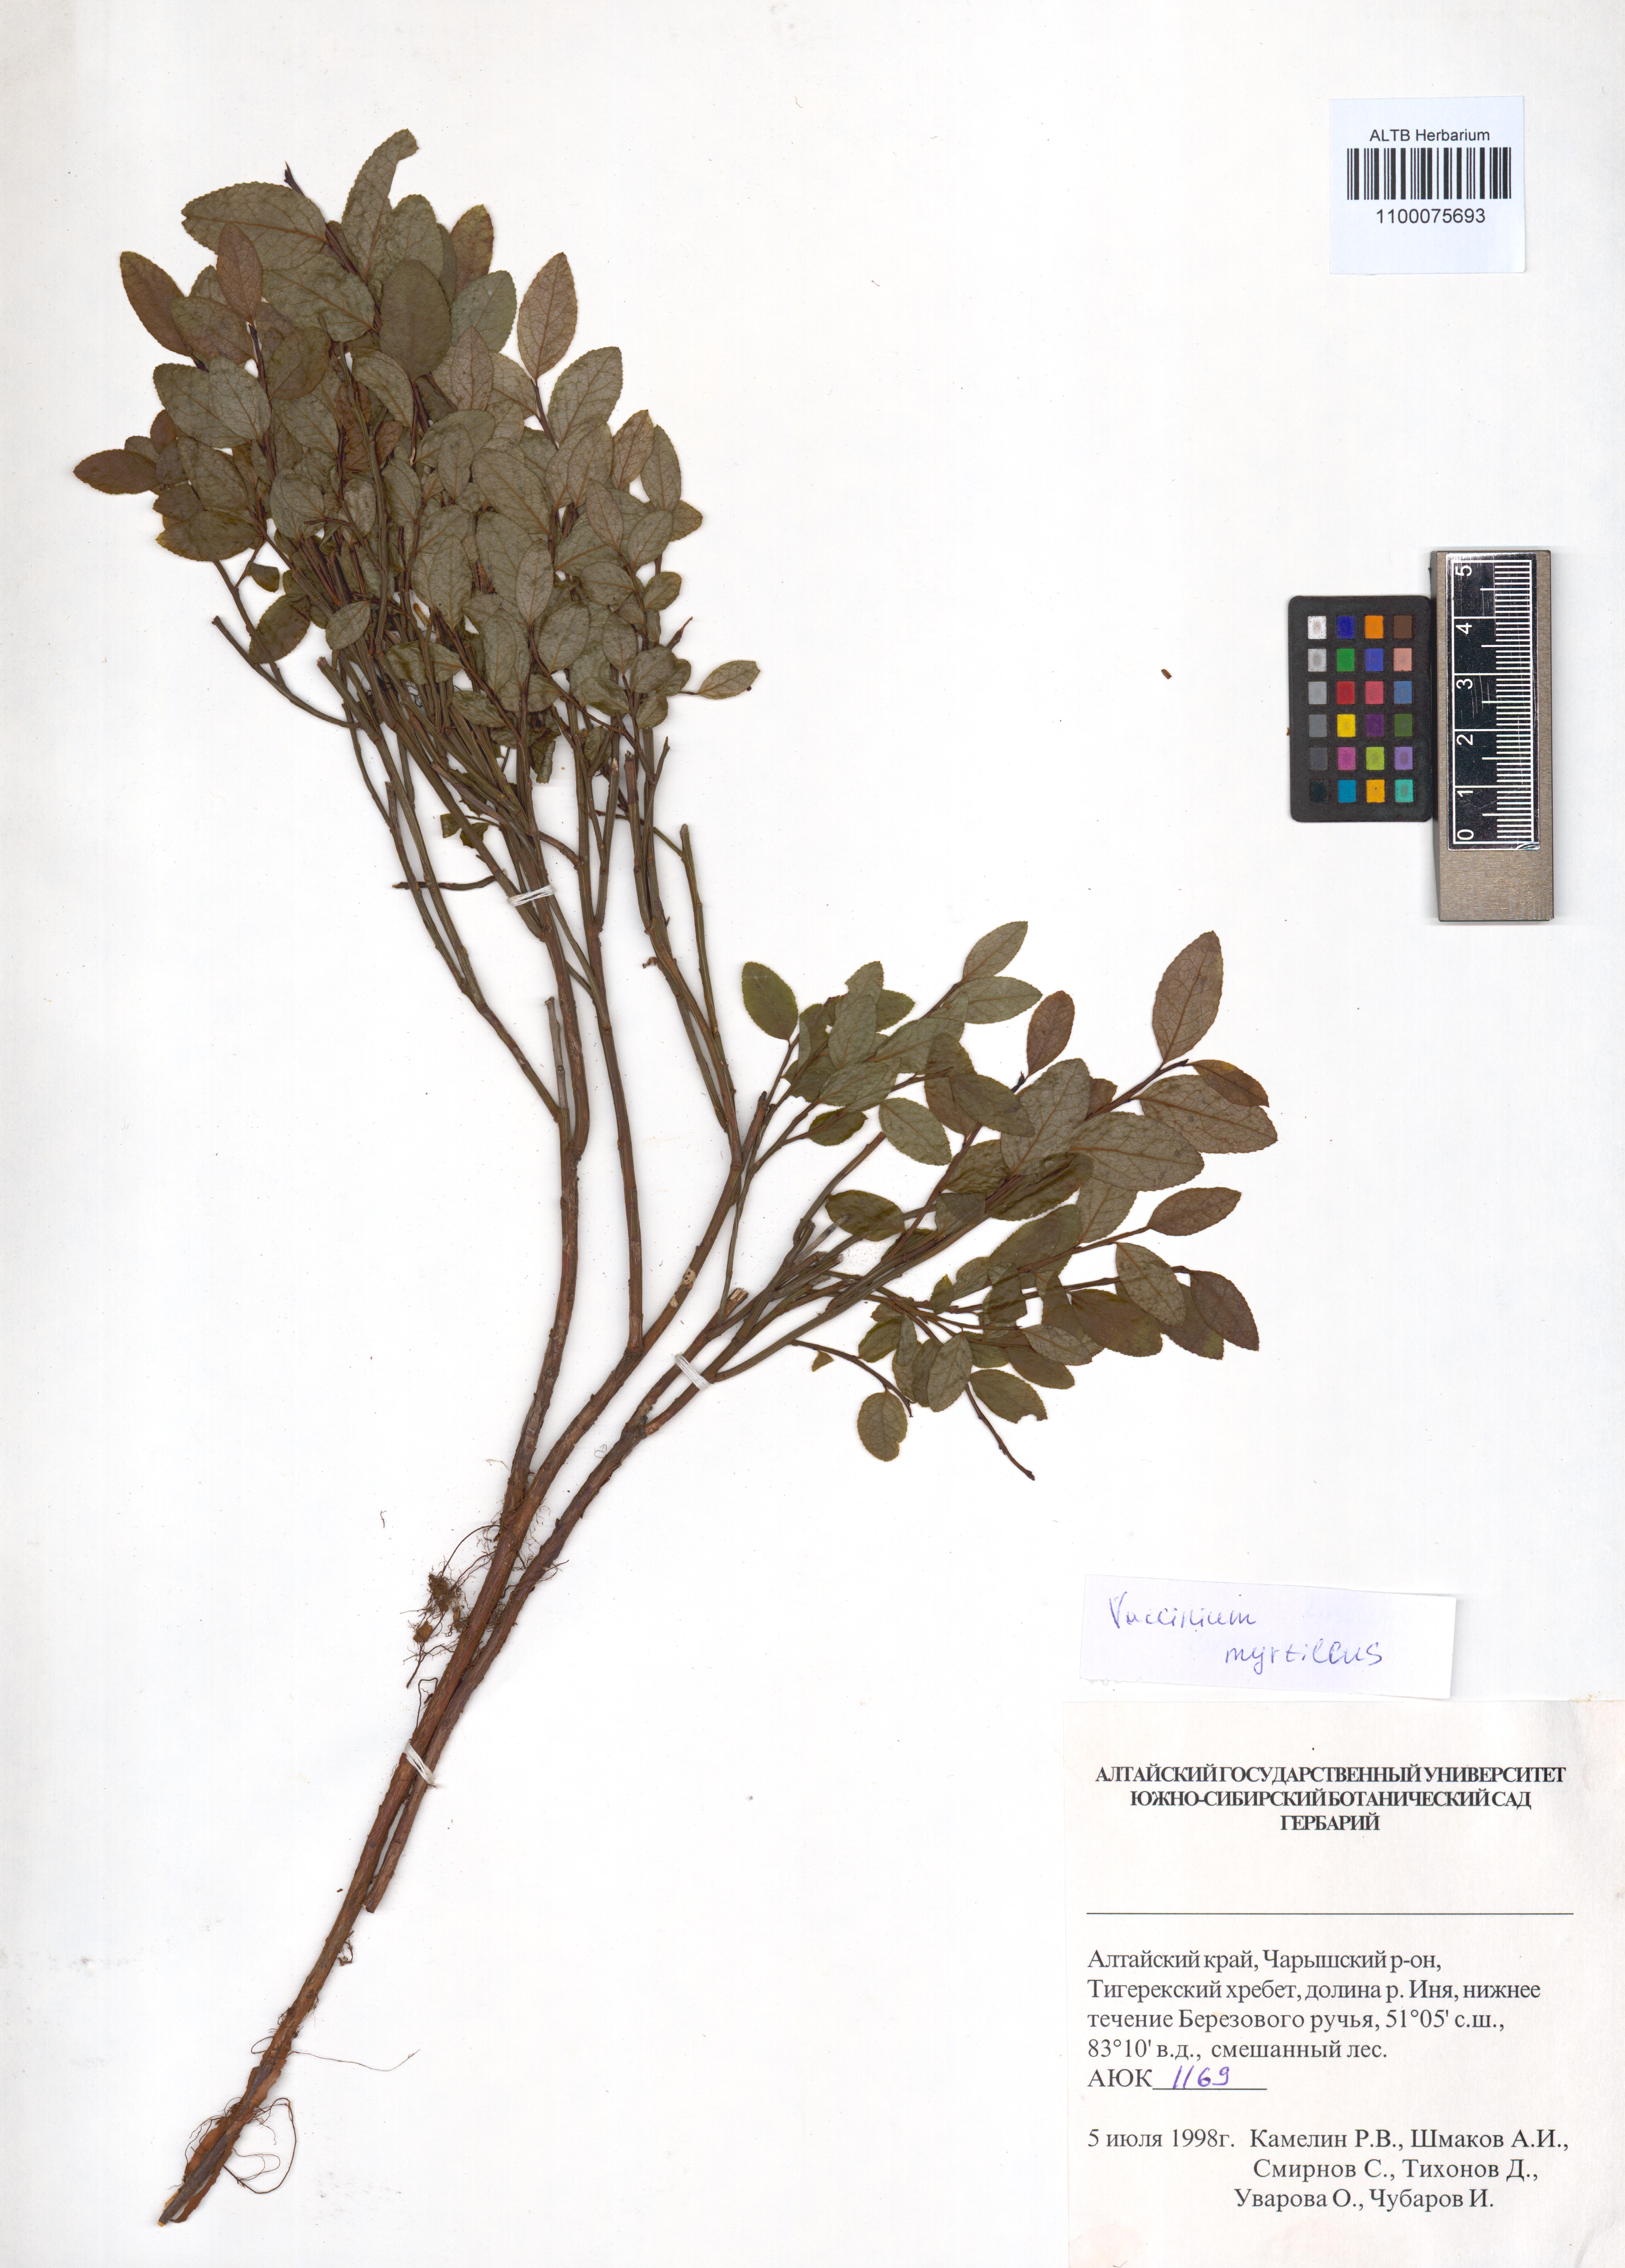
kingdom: Plantae
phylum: Tracheophyta
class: Magnoliopsida
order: Ericales
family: Ericaceae
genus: Vaccinium
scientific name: Vaccinium myrtillus
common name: Bilberry
